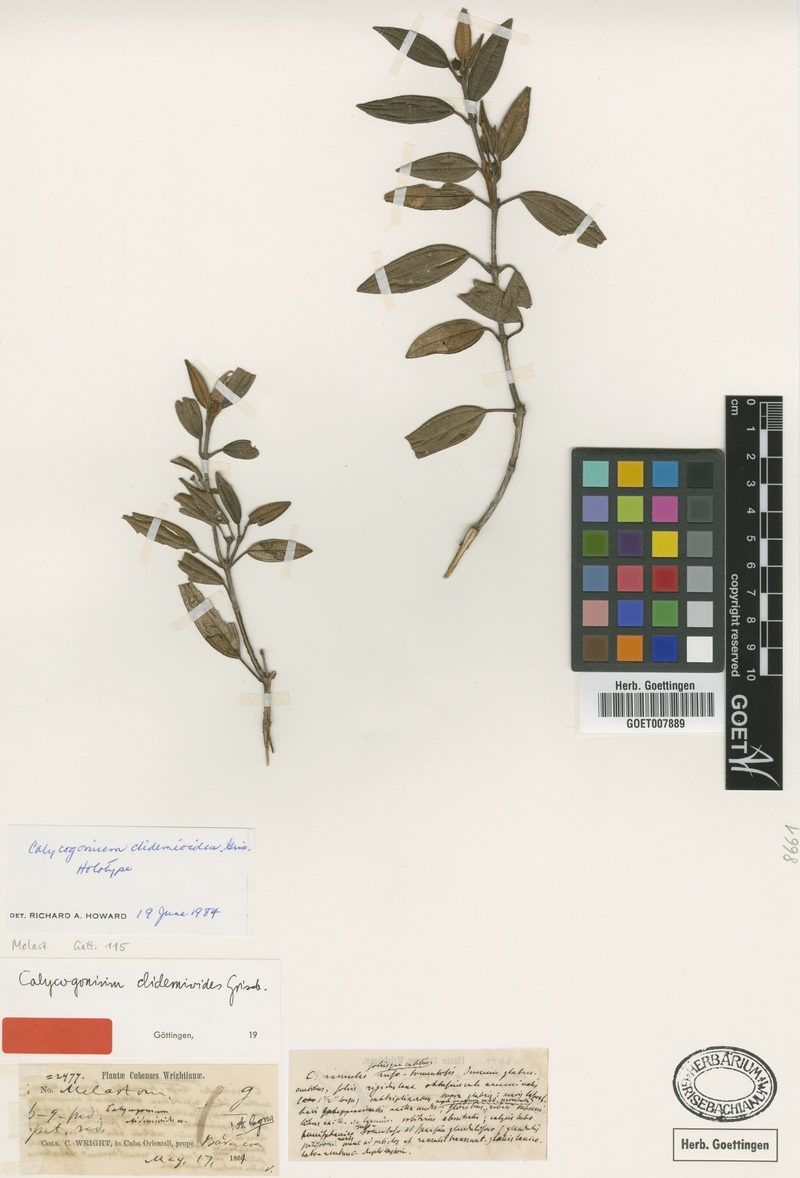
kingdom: Plantae
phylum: Tracheophyta
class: Magnoliopsida
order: Myrtales
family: Melastomataceae
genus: Miconia
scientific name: Miconia baracoana
